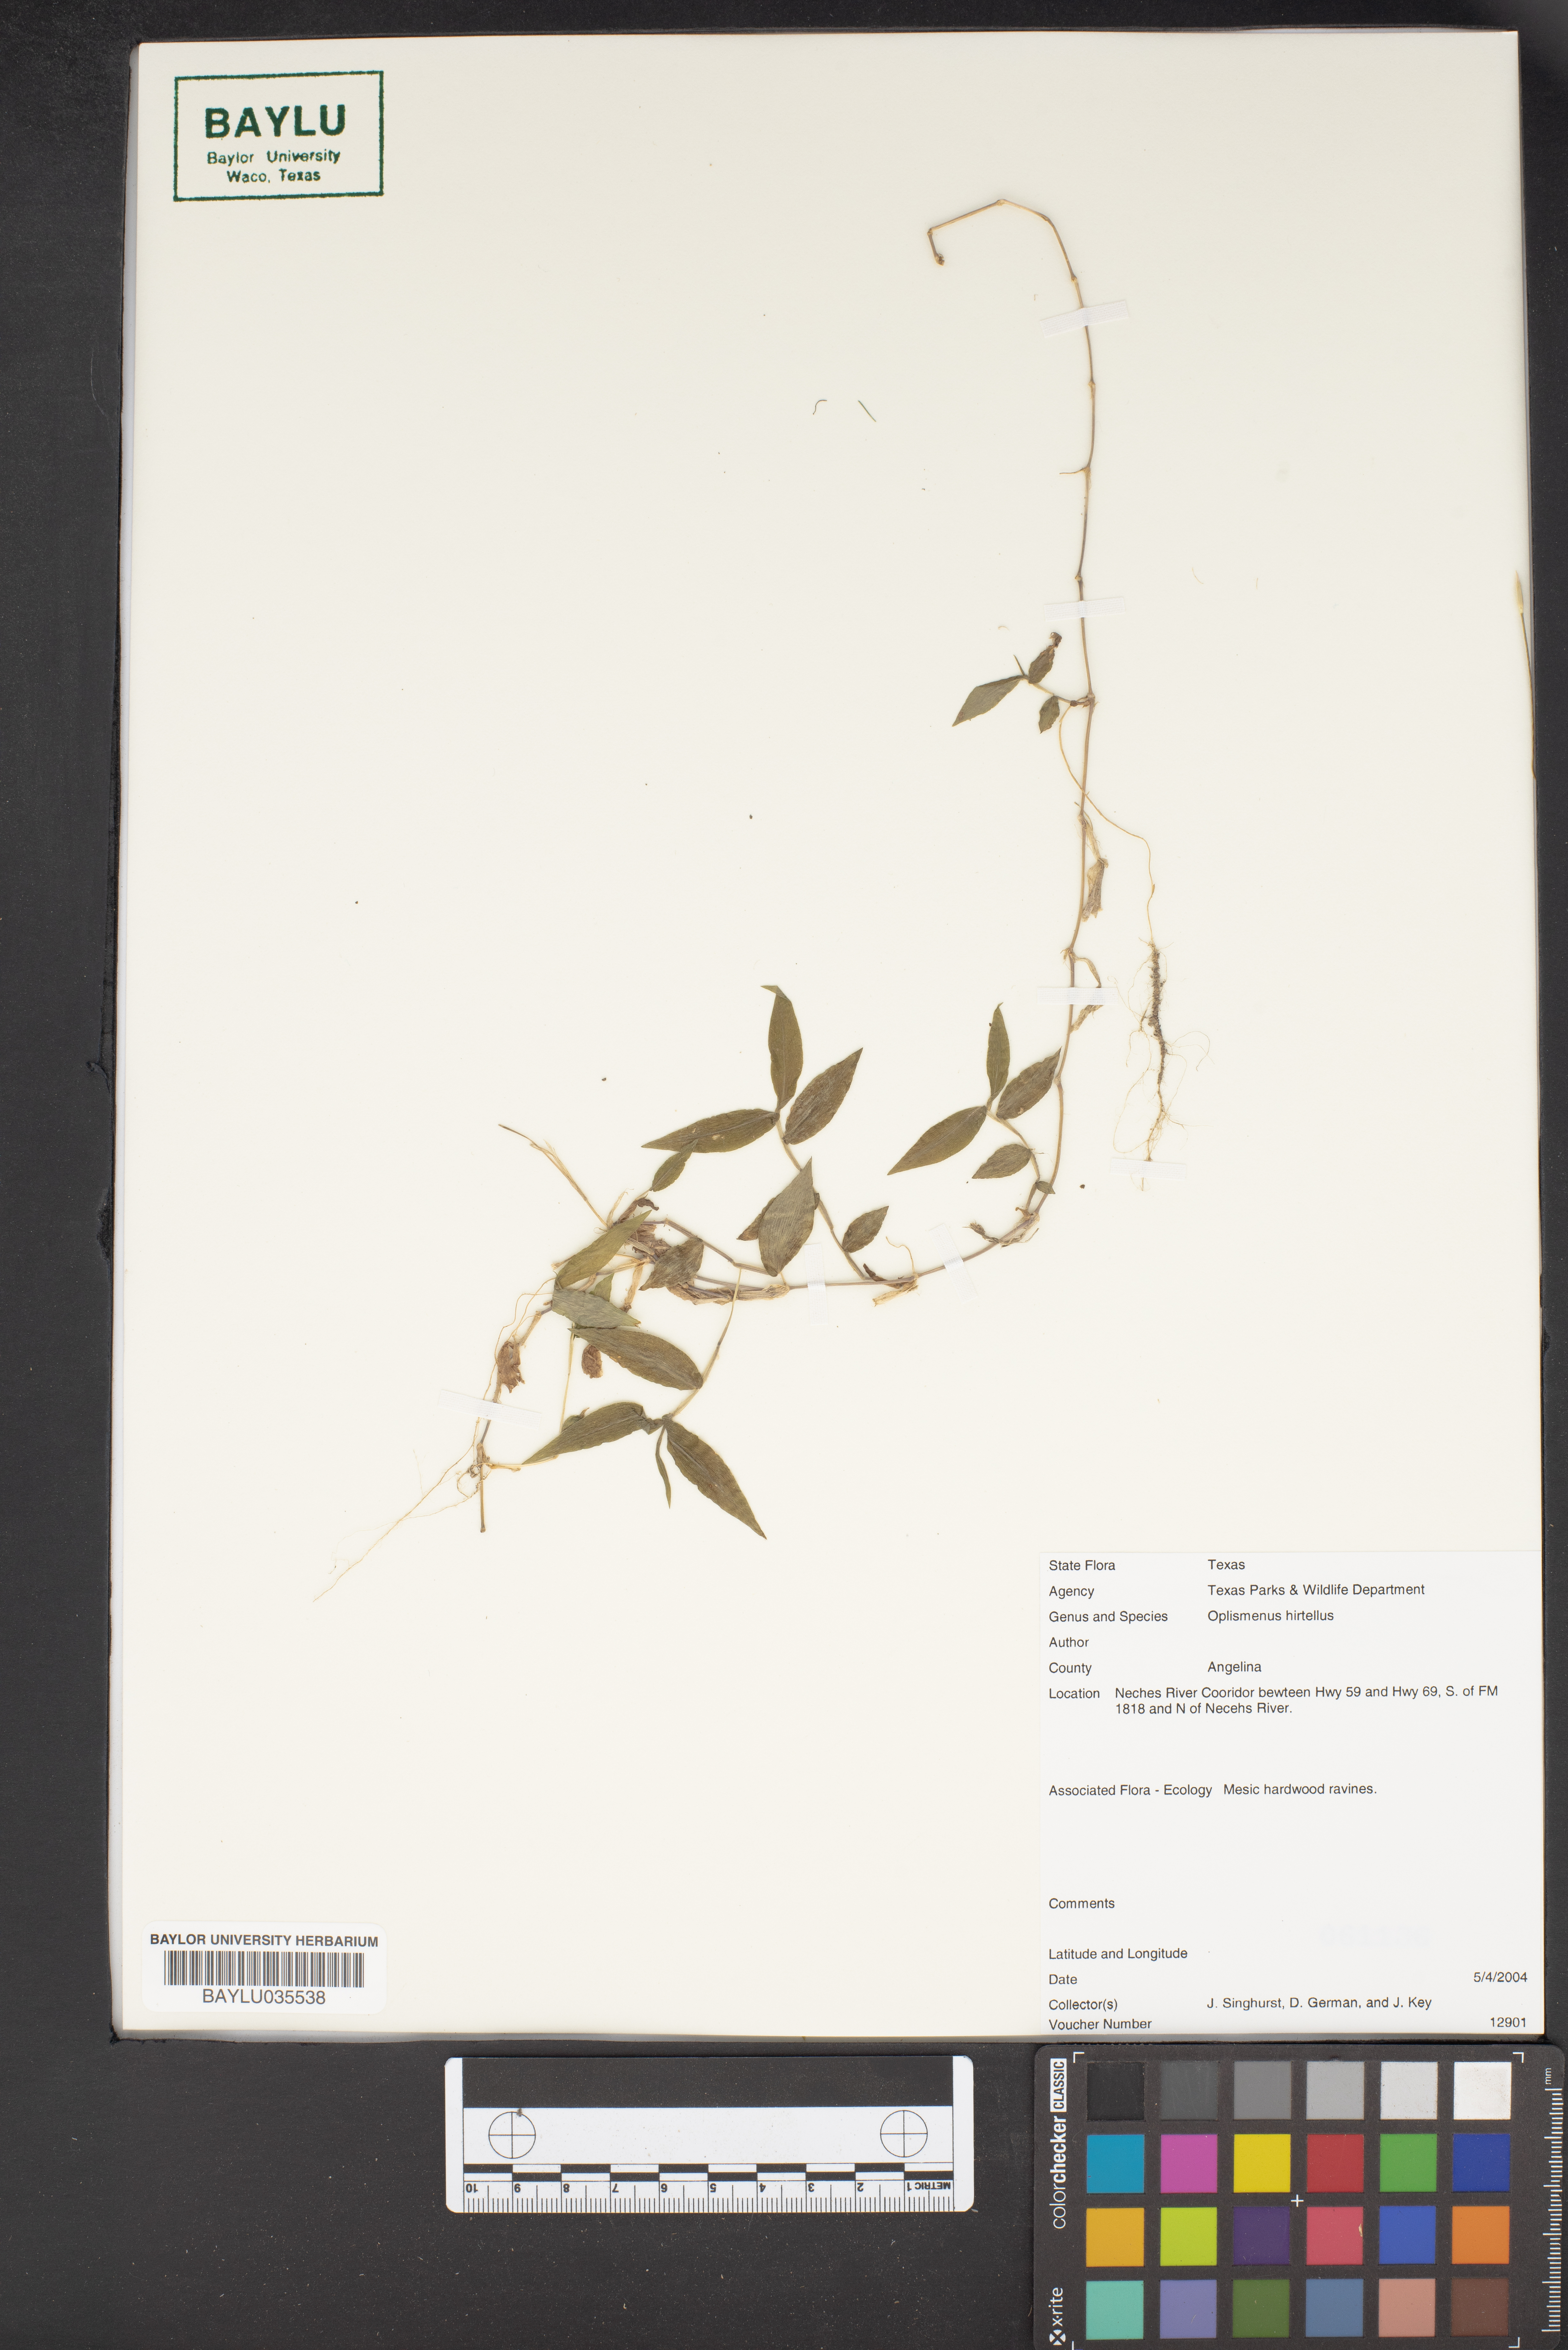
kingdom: Plantae
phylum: Tracheophyta
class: Liliopsida
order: Poales
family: Poaceae
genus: Oplismenus
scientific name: Oplismenus hirtellus
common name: Basketgrass
